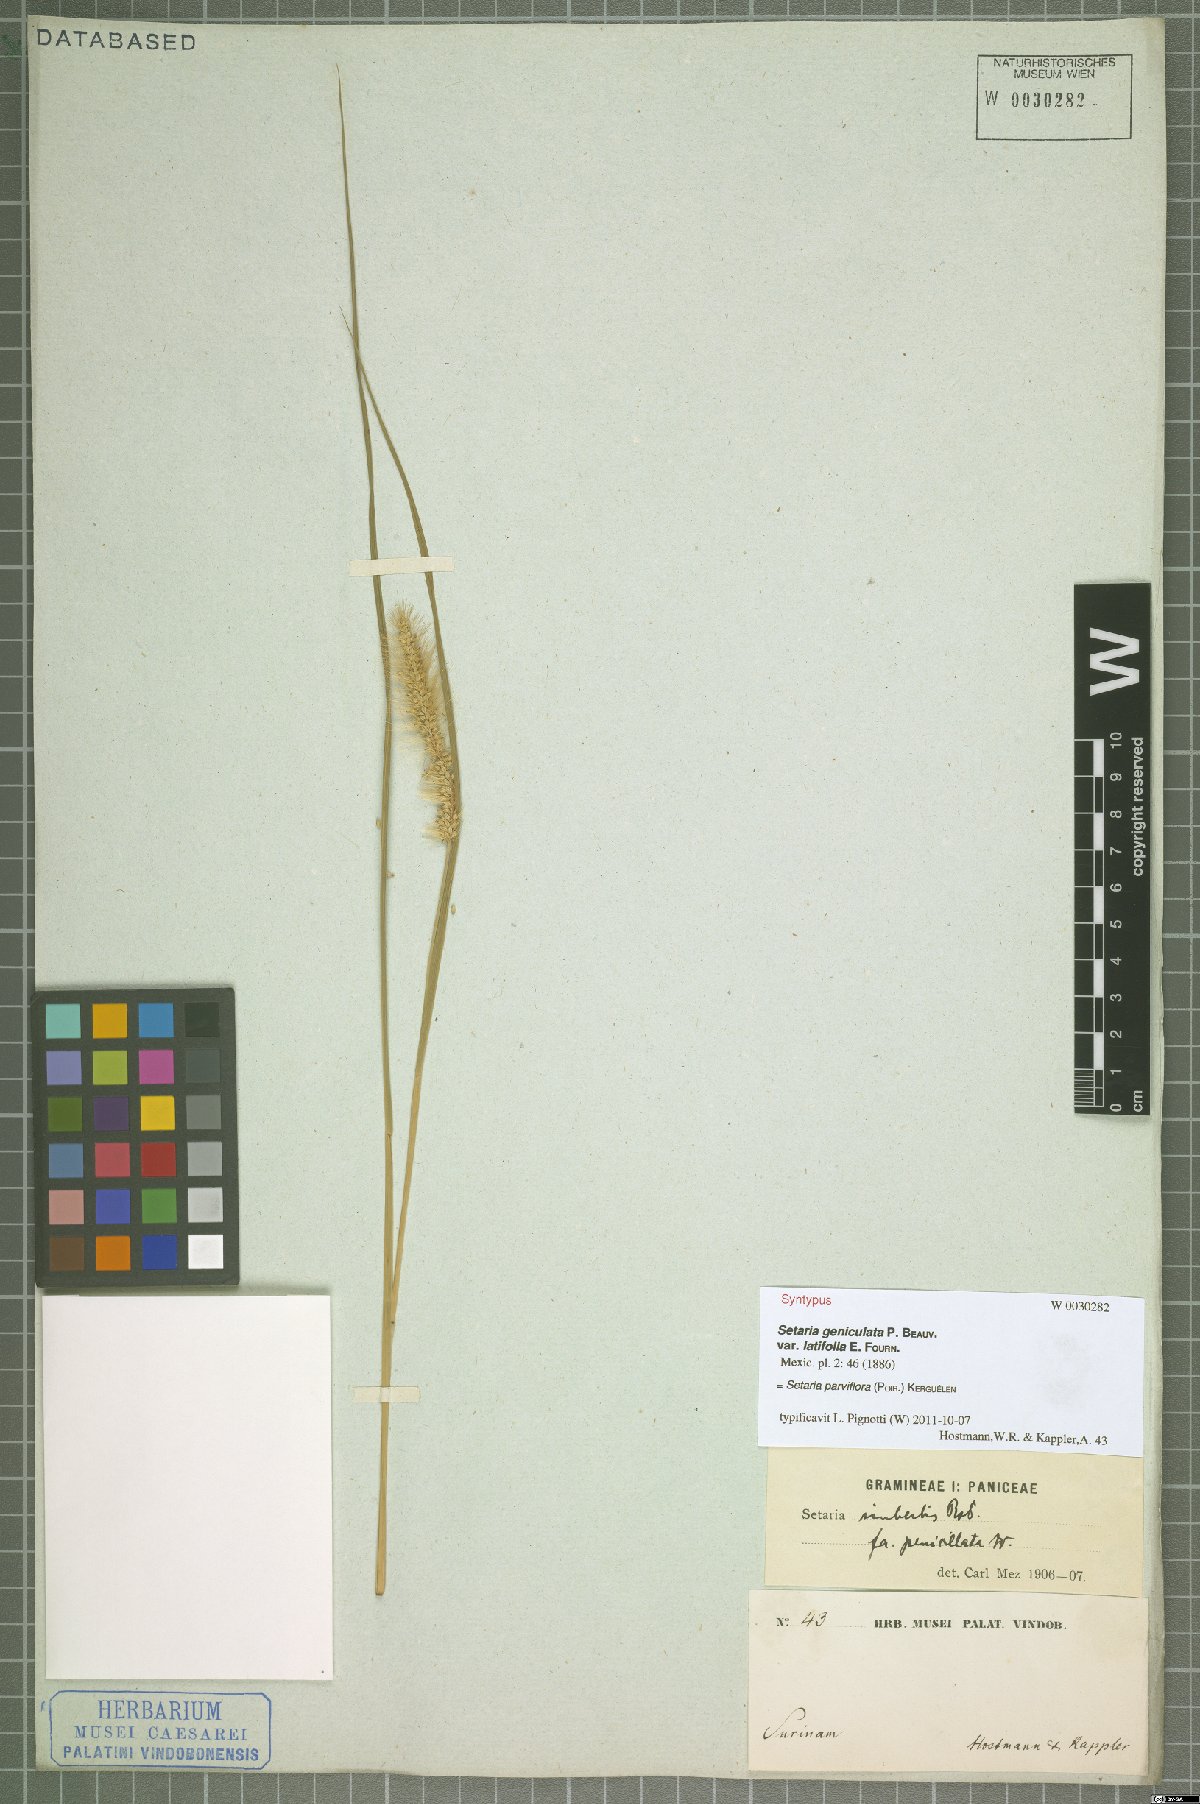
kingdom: Plantae
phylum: Tracheophyta
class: Liliopsida
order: Poales
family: Poaceae
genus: Setaria
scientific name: Setaria parviflora
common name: Knotroot bristle-grass
